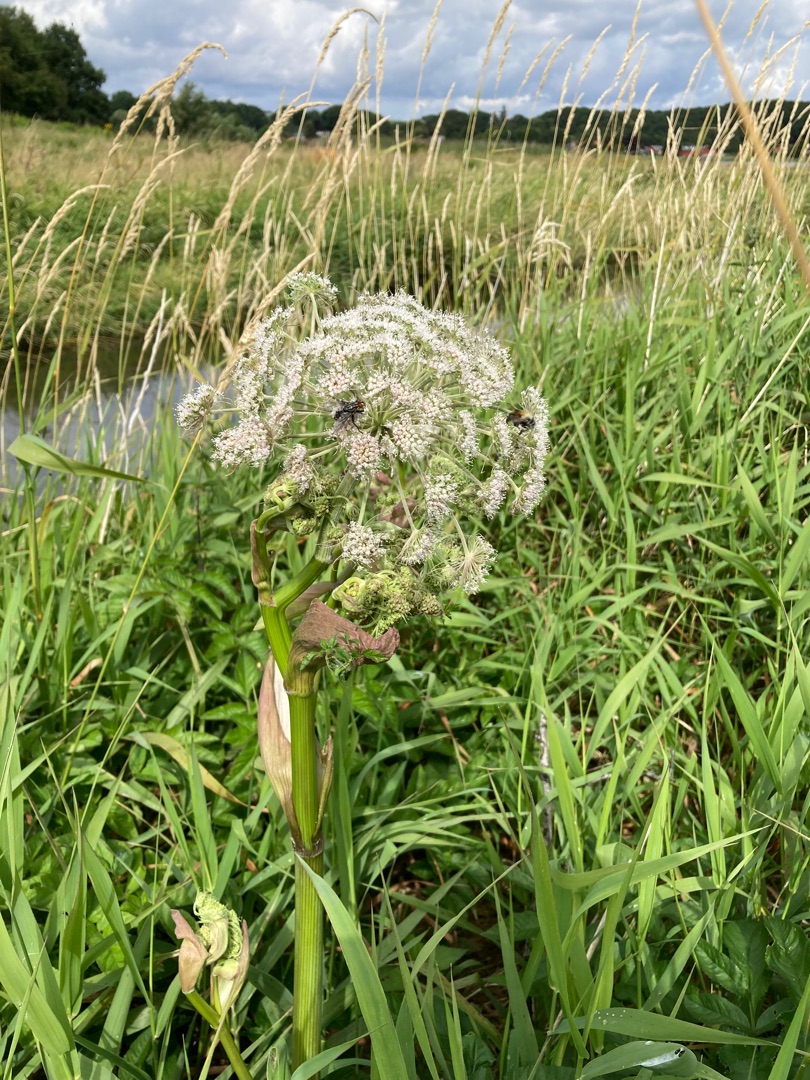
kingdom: Plantae
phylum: Tracheophyta
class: Magnoliopsida
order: Apiales
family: Apiaceae
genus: Angelica
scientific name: Angelica sylvestris
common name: Angelik
